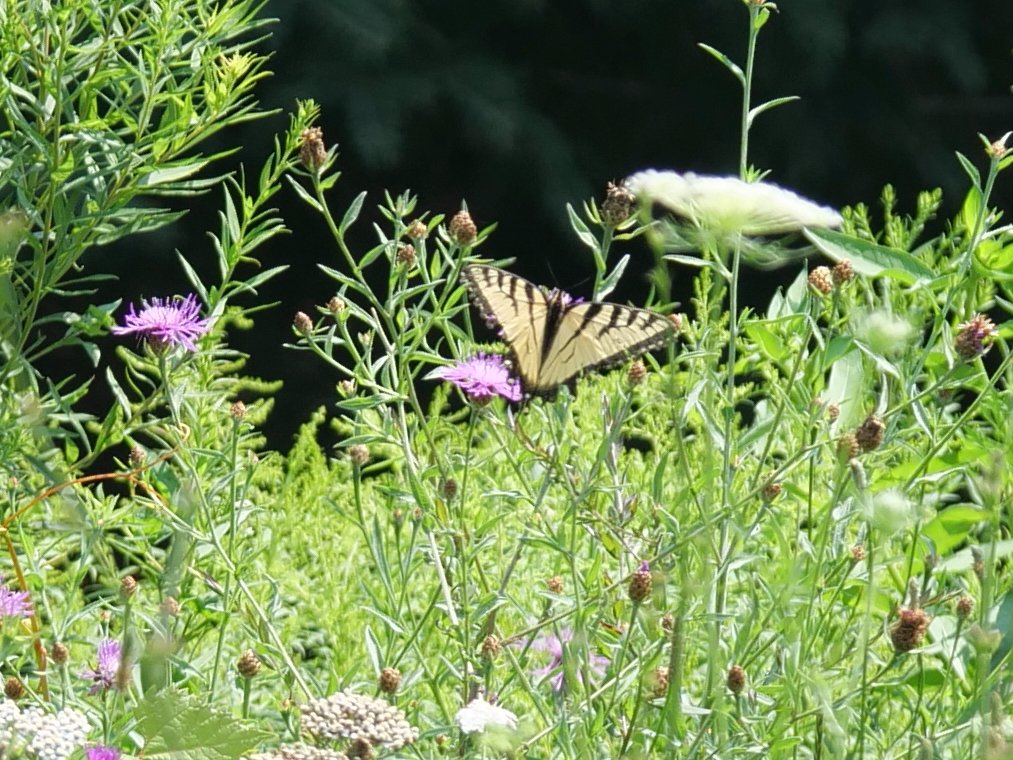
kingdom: Animalia
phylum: Arthropoda
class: Insecta
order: Lepidoptera
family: Papilionidae
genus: Papilio
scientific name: Papilio
